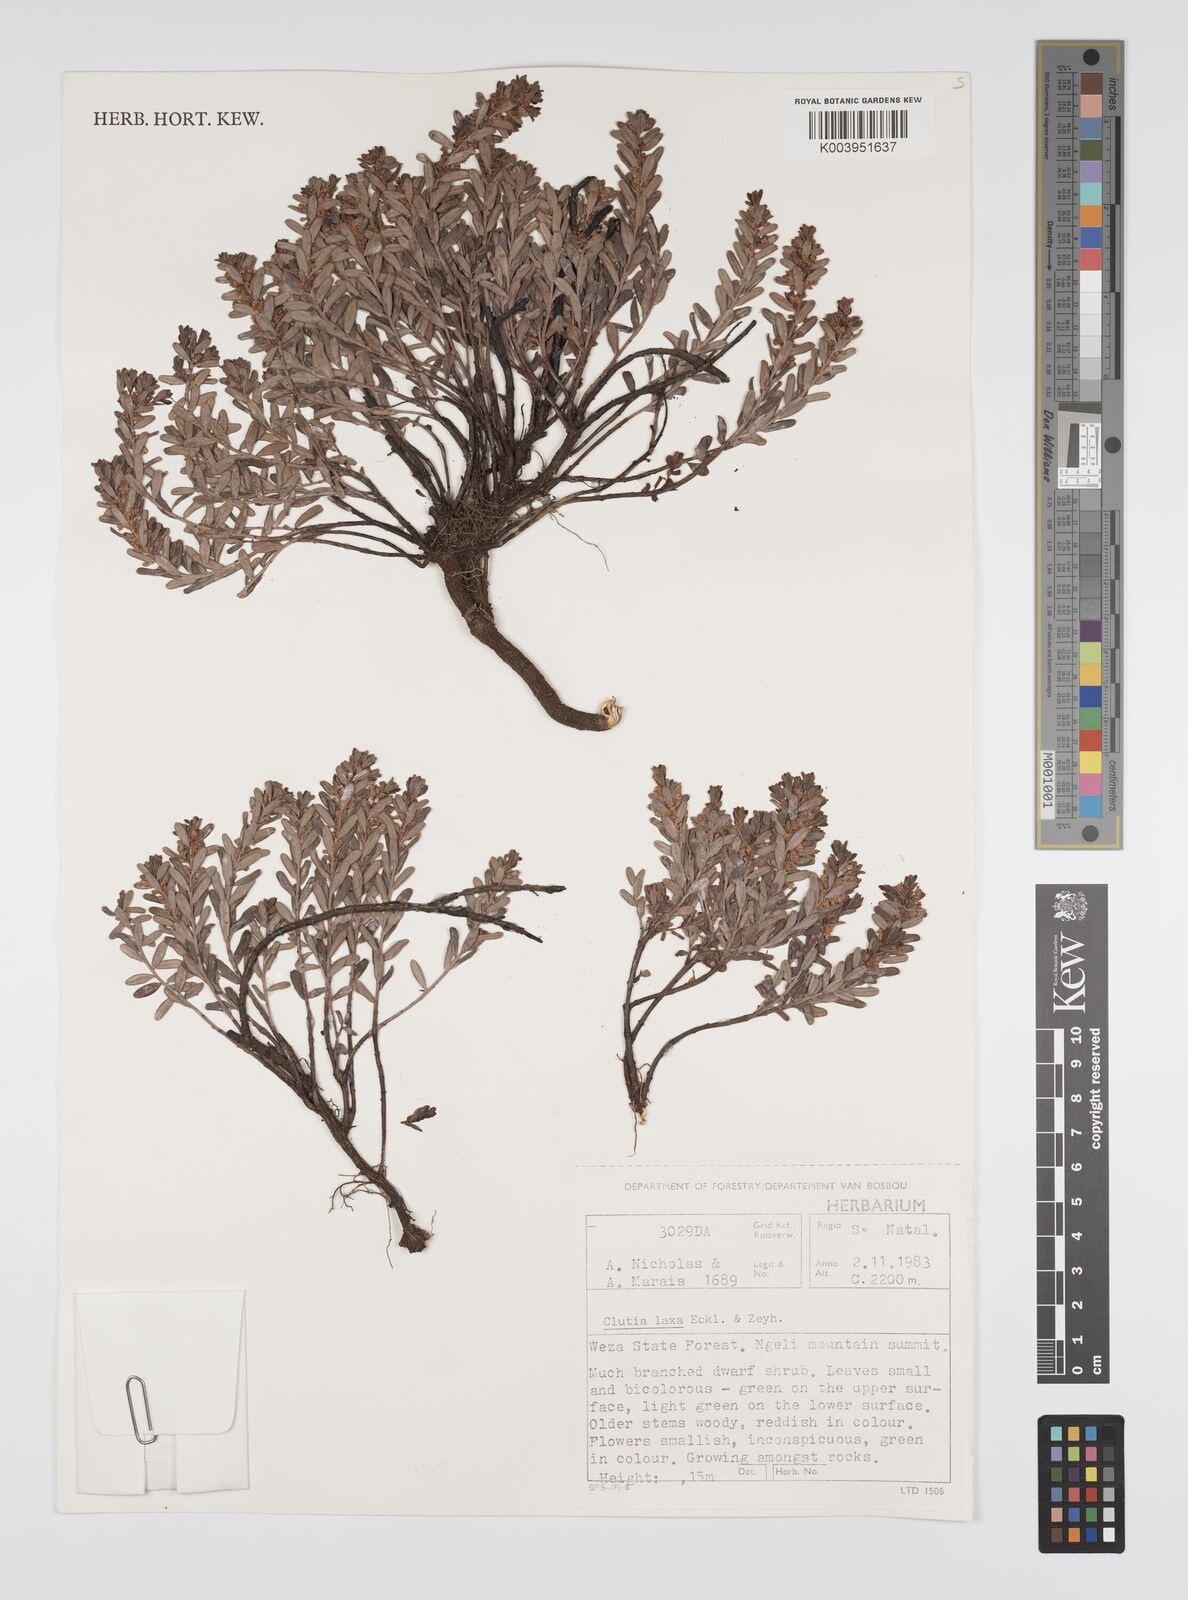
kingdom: Plantae
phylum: Tracheophyta
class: Magnoliopsida
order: Malpighiales
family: Peraceae
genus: Clutia
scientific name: Clutia laxa
